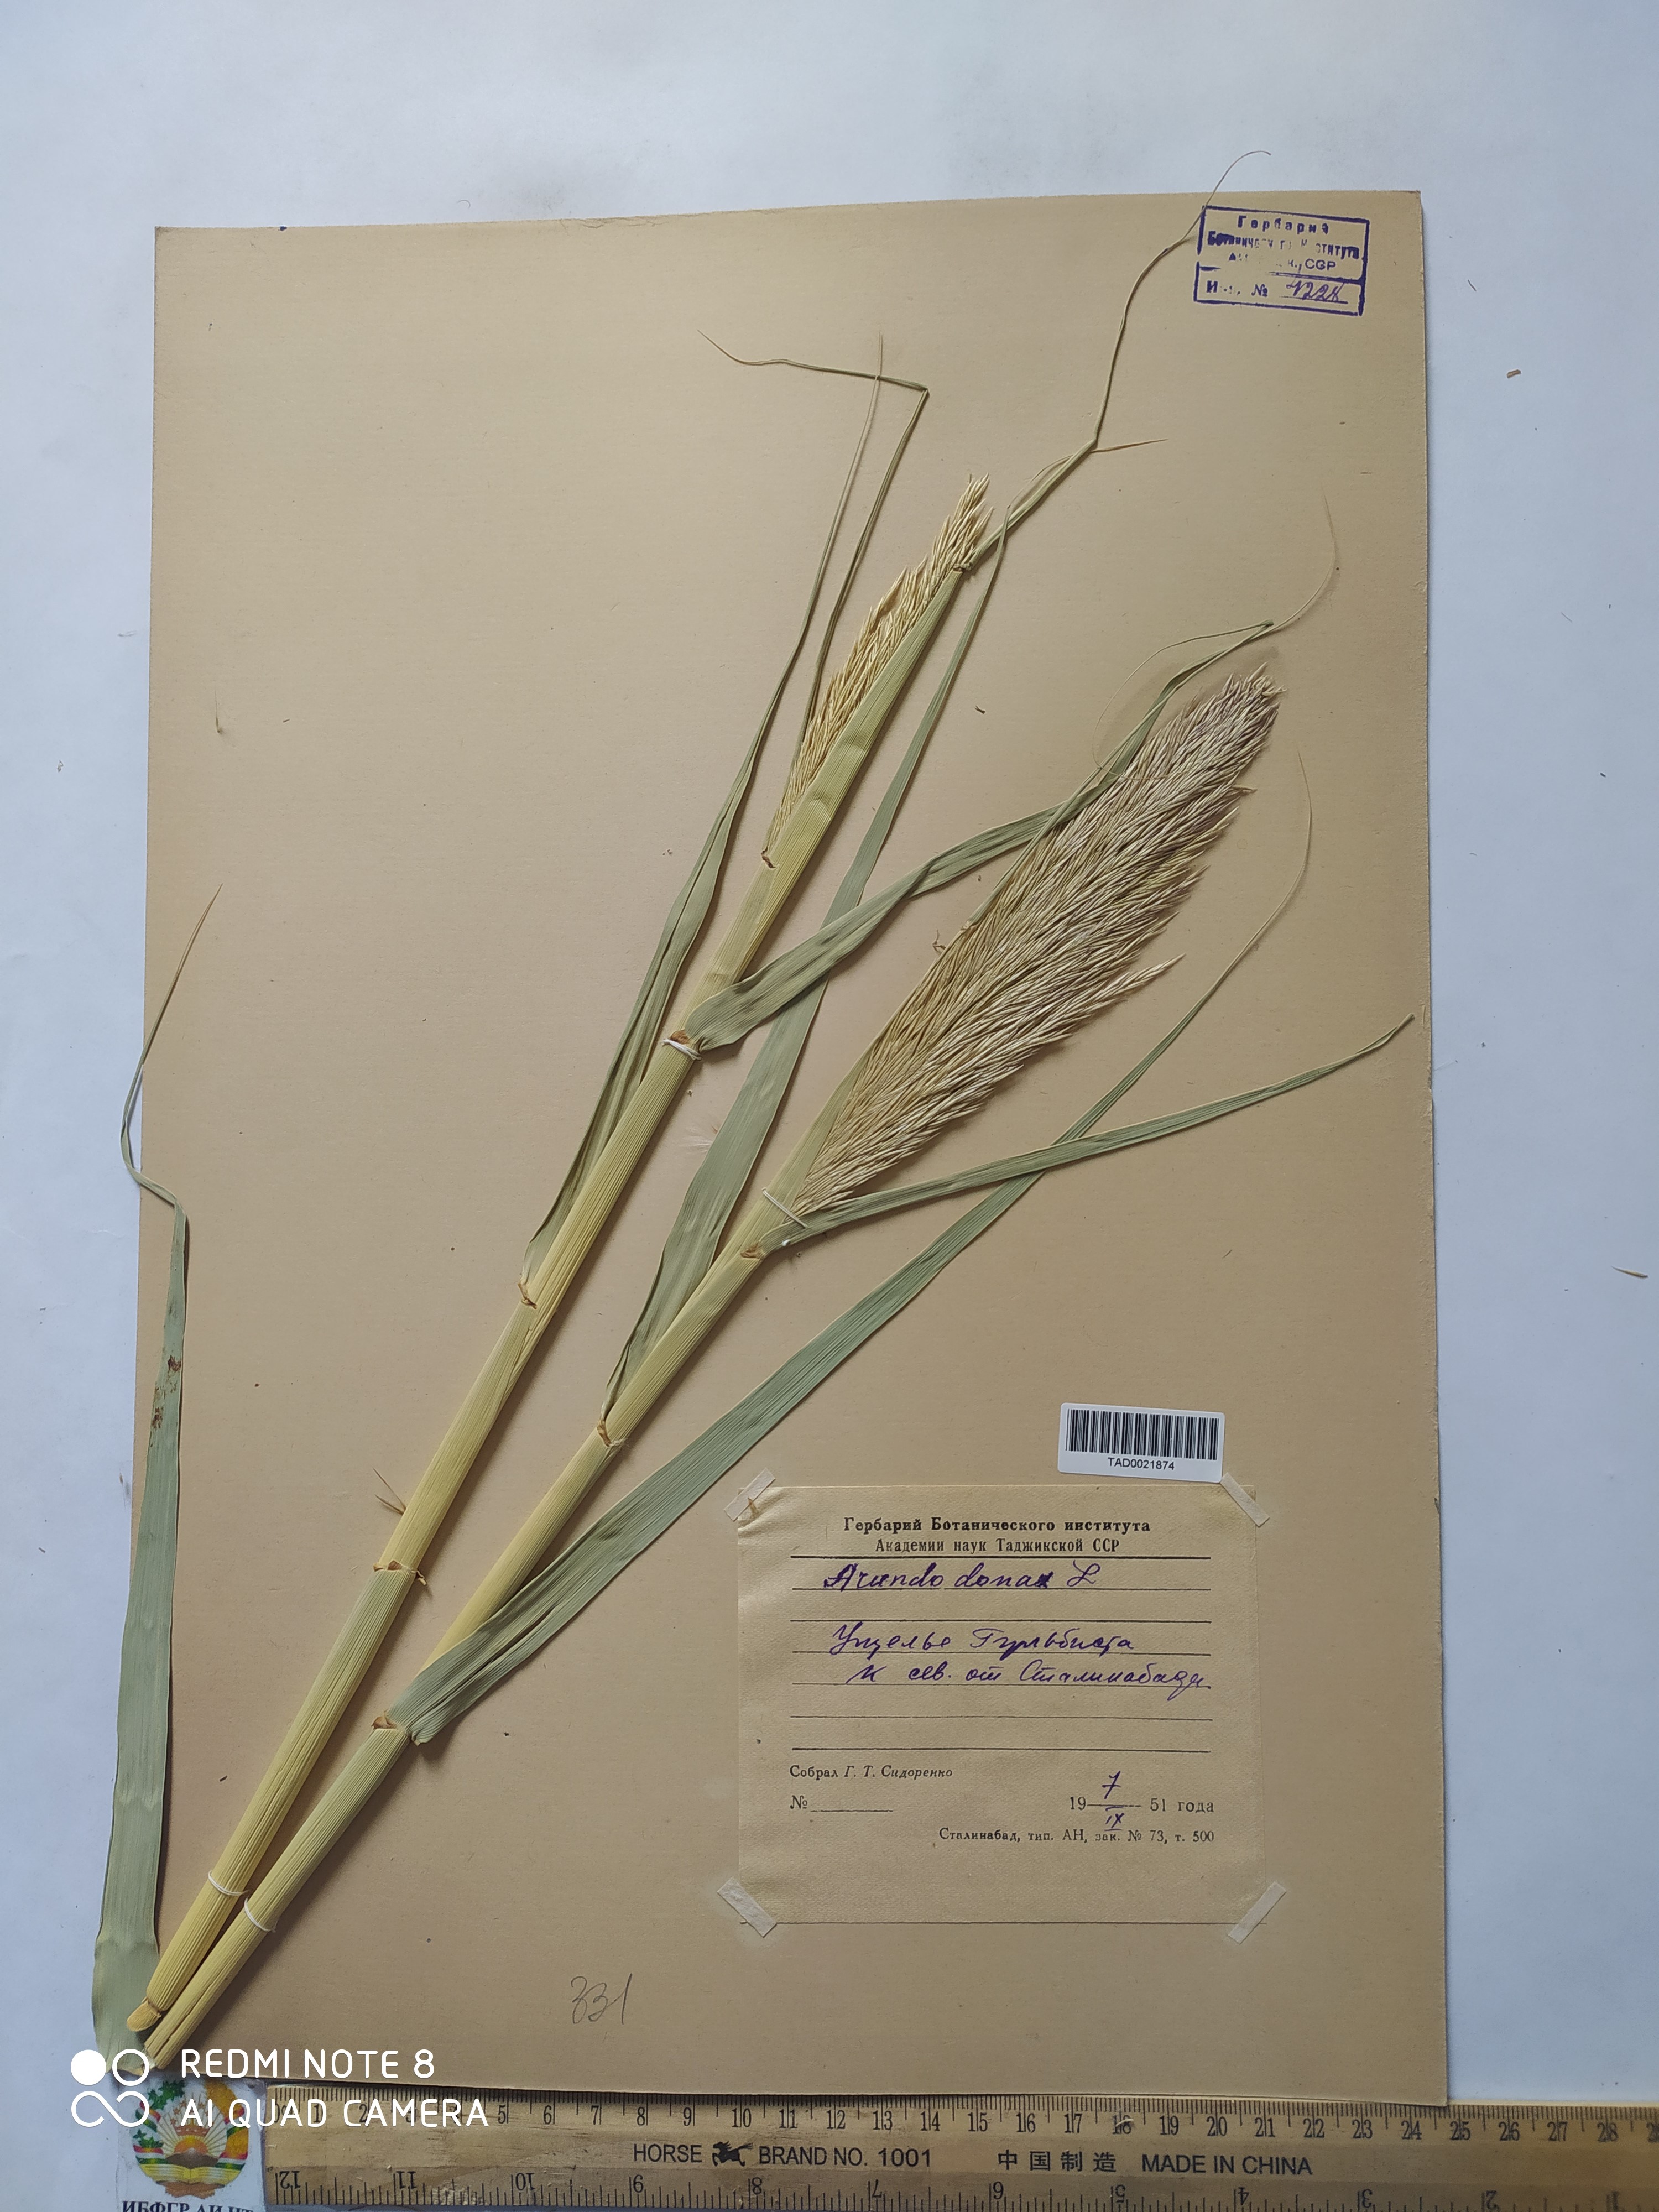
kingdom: Plantae
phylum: Tracheophyta
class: Liliopsida
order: Poales
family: Poaceae
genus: Arundo
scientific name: Arundo donax
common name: Giant reed
